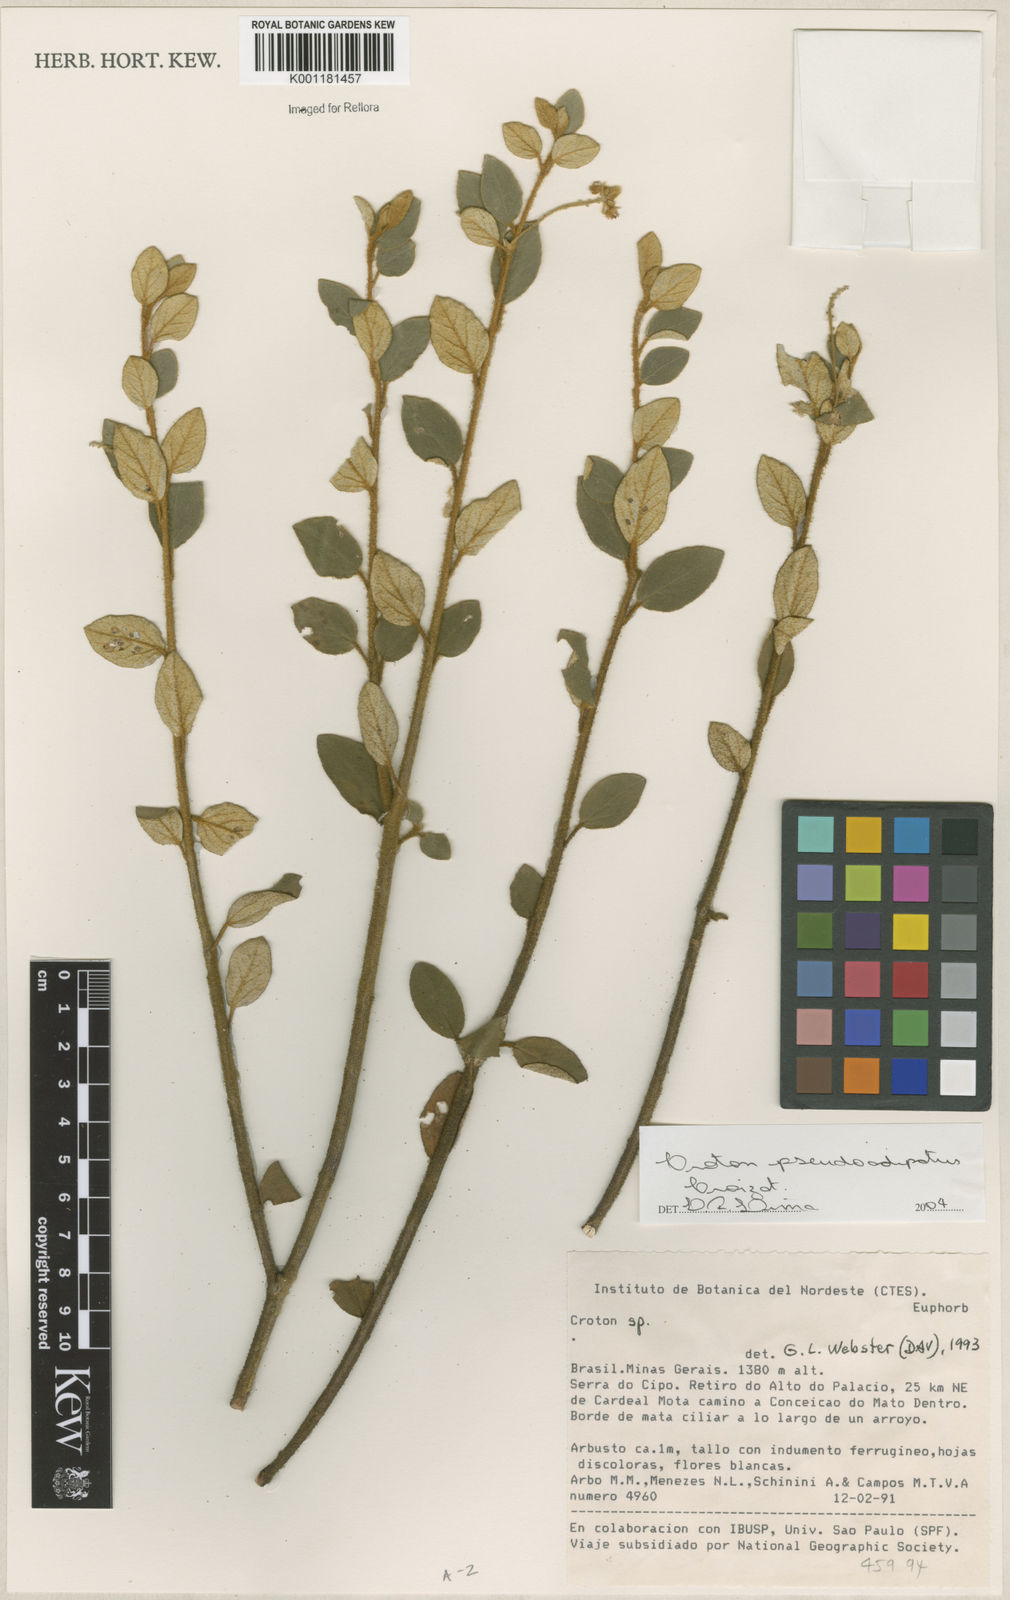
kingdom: Plantae
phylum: Tracheophyta
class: Magnoliopsida
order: Malpighiales
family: Euphorbiaceae
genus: Croton
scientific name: Croton pseudoadipatus
